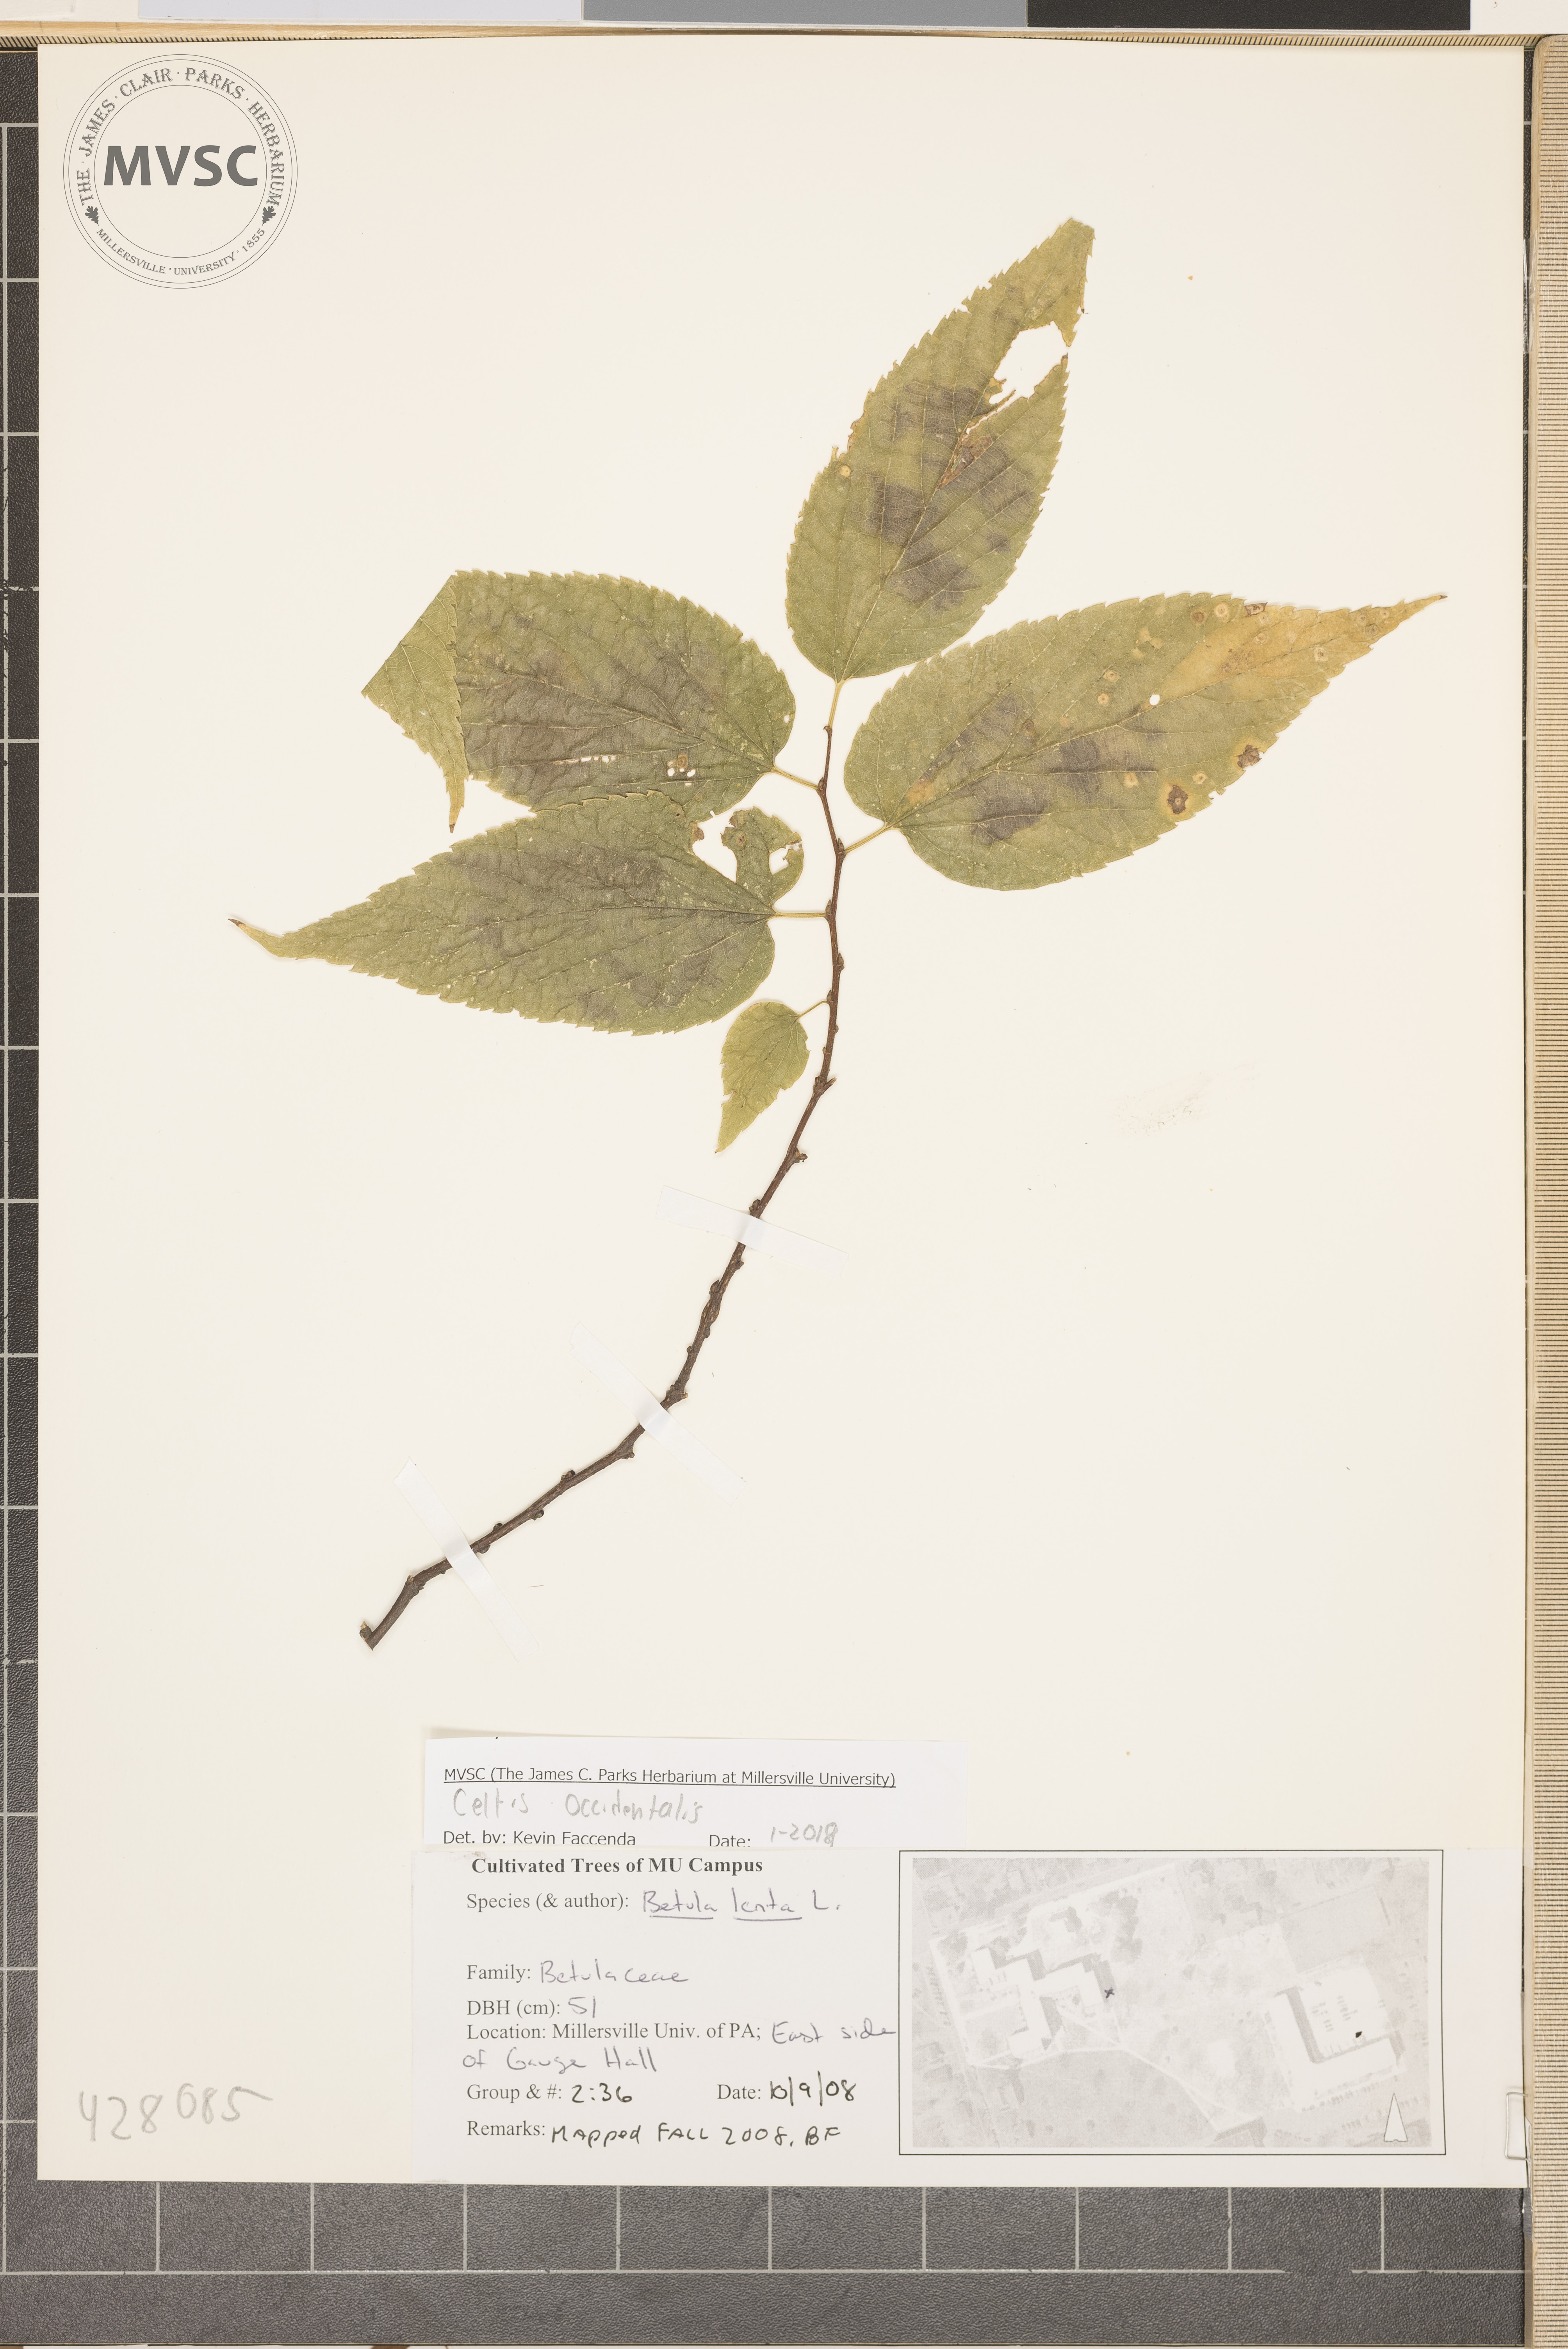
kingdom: Plantae
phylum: Tracheophyta
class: Magnoliopsida
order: Rosales
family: Cannabaceae
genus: Celtis
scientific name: Celtis occidentalis
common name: Common hackberry
